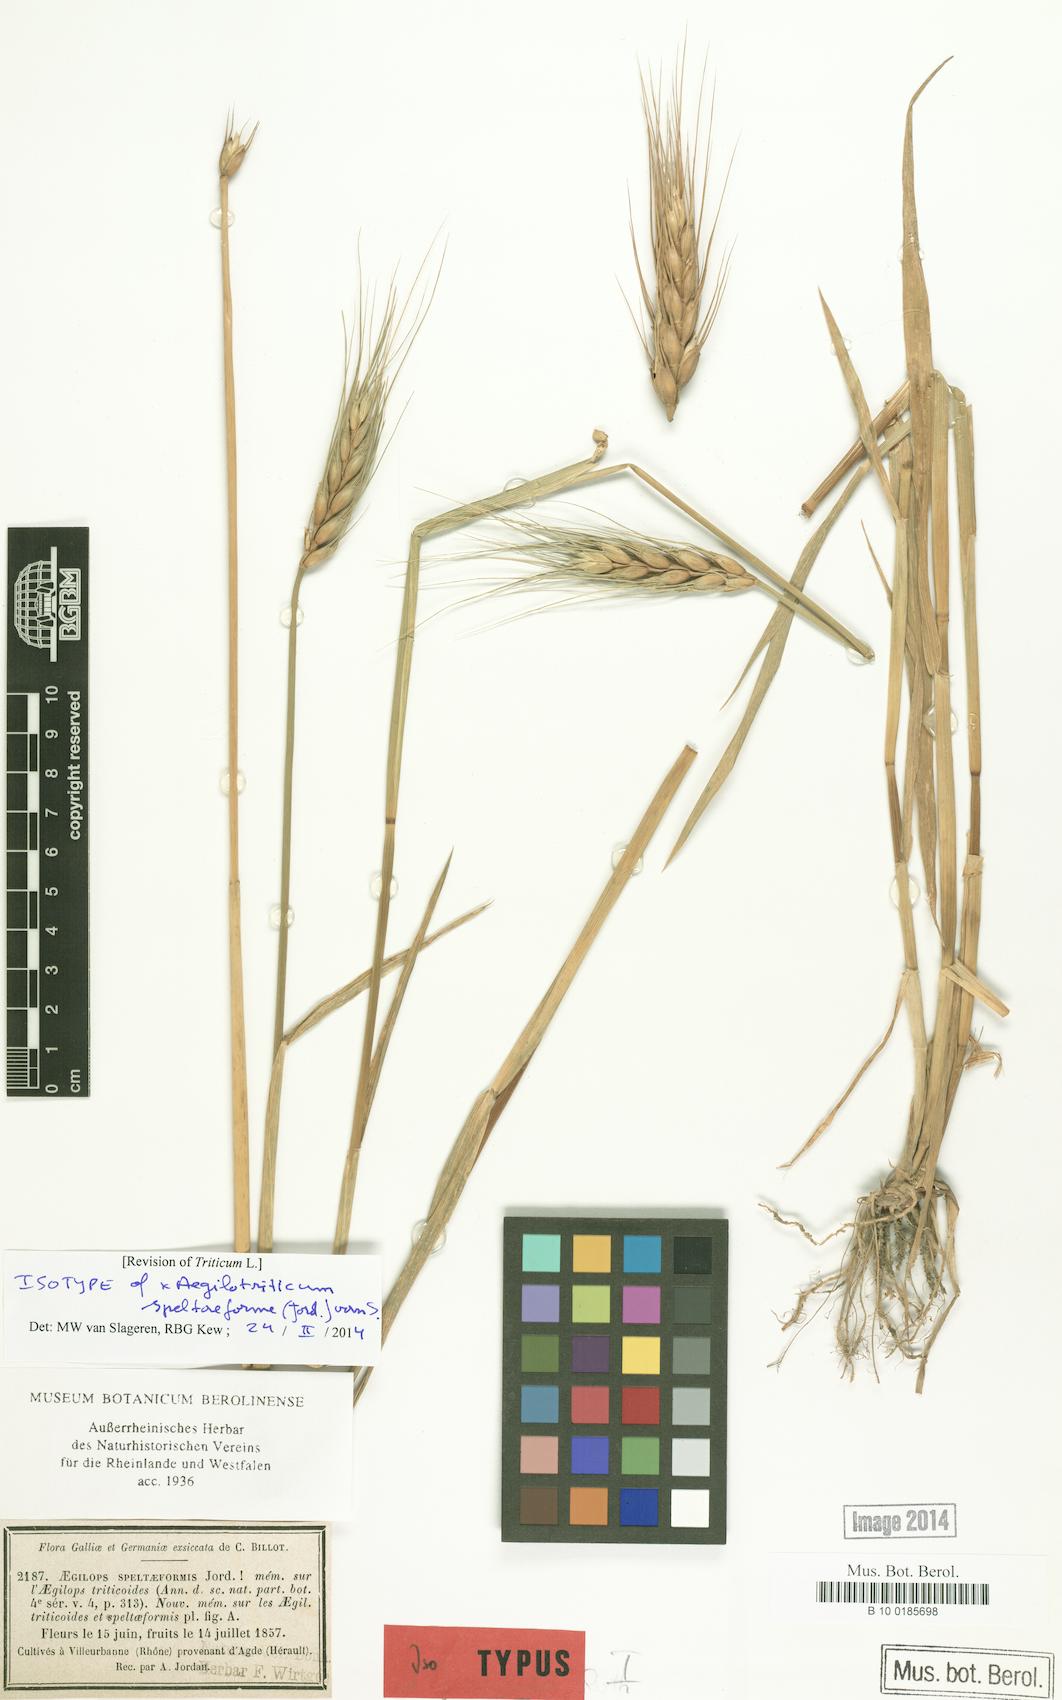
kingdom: Plantae
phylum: Tracheophyta
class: Liliopsida
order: Poales
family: Poaceae
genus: Aegilotriticum
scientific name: Aegilotriticum triticoides
